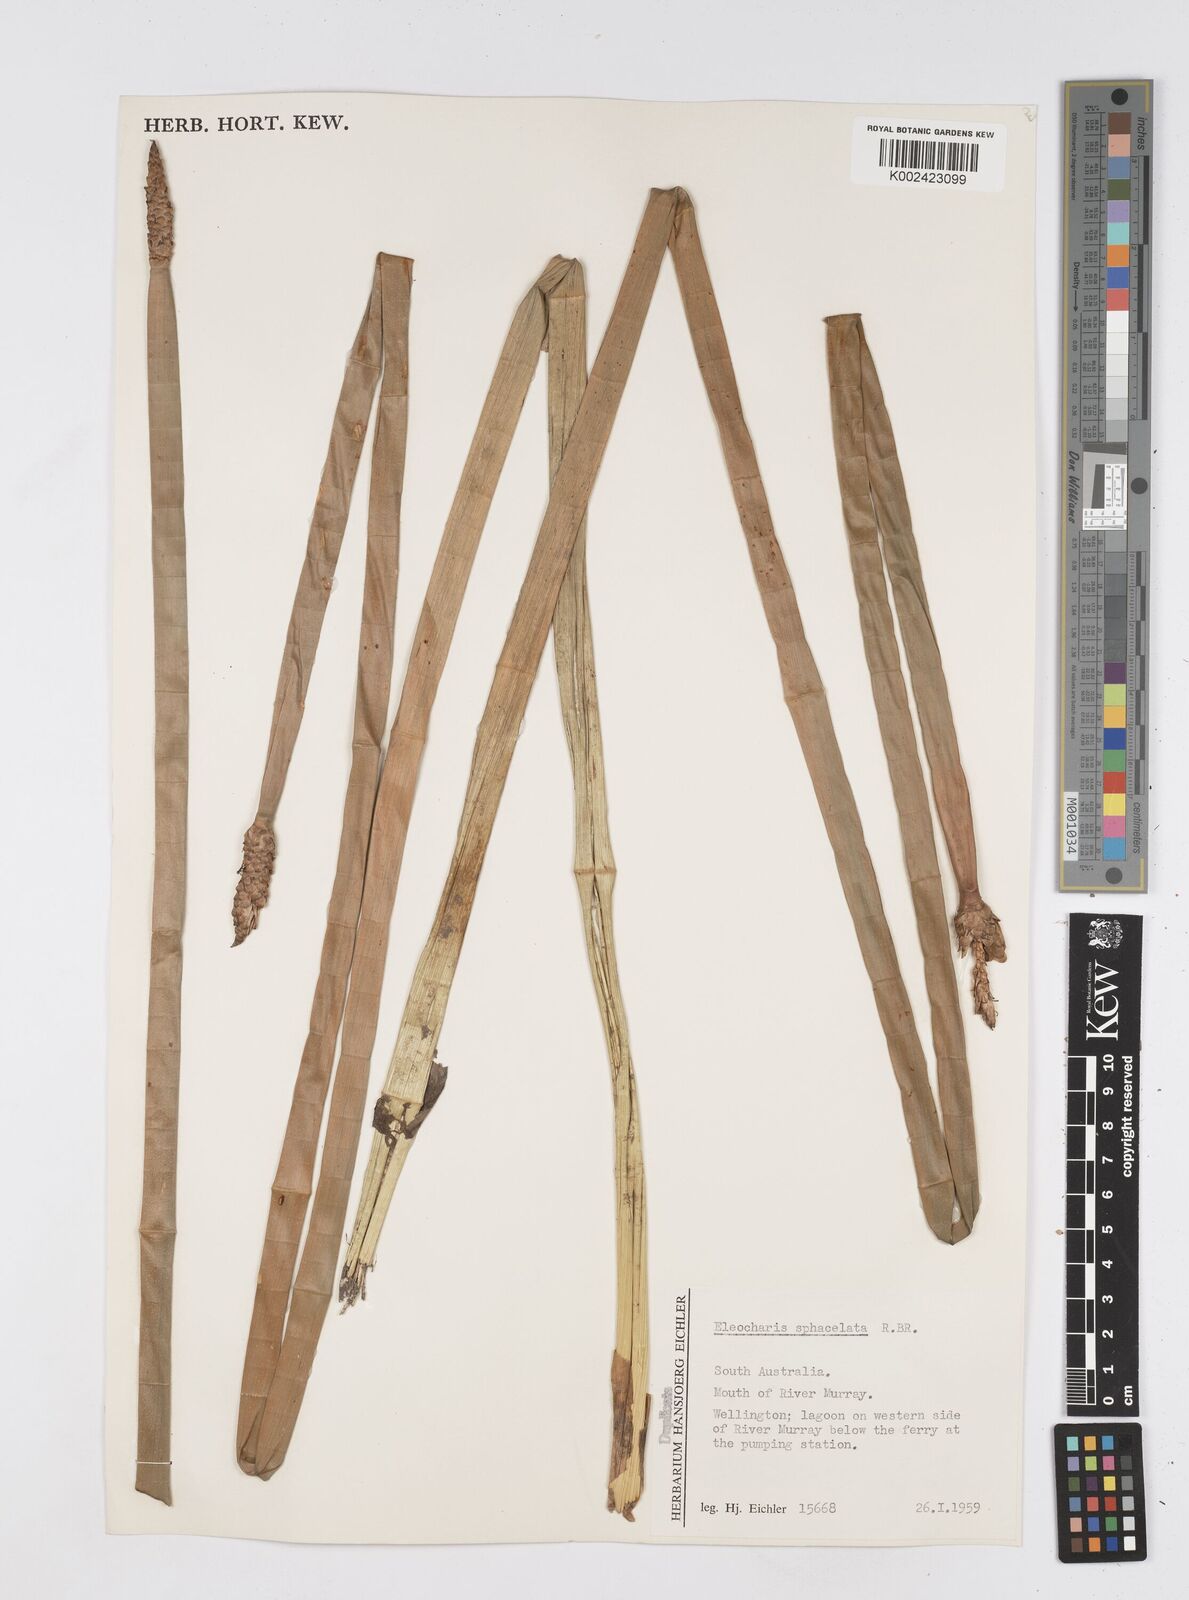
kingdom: Plantae
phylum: Tracheophyta
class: Liliopsida
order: Poales
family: Cyperaceae
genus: Eleocharis
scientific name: Eleocharis sphacelata
